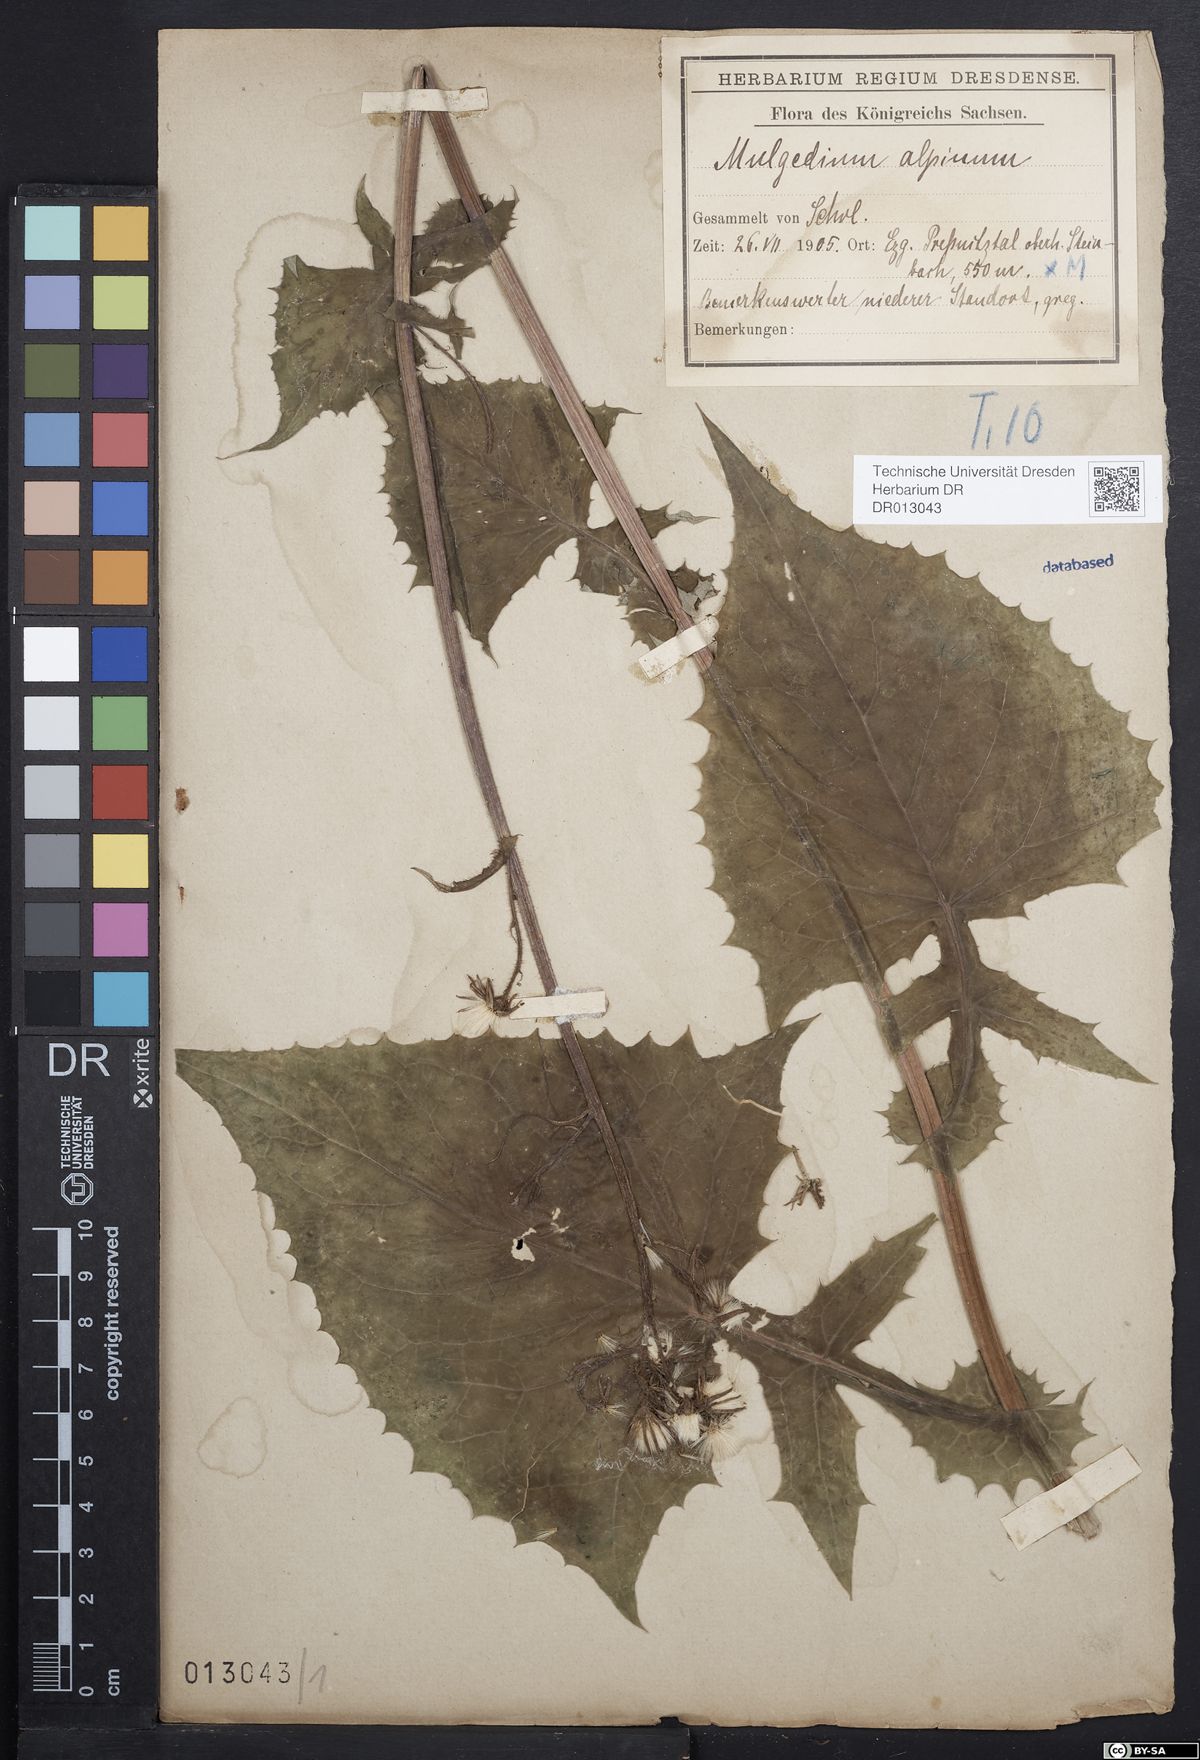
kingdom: Plantae
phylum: Tracheophyta
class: Magnoliopsida
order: Asterales
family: Asteraceae
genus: Cicerbita
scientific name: Cicerbita alpina
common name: Alpine blue-sow-thistle
